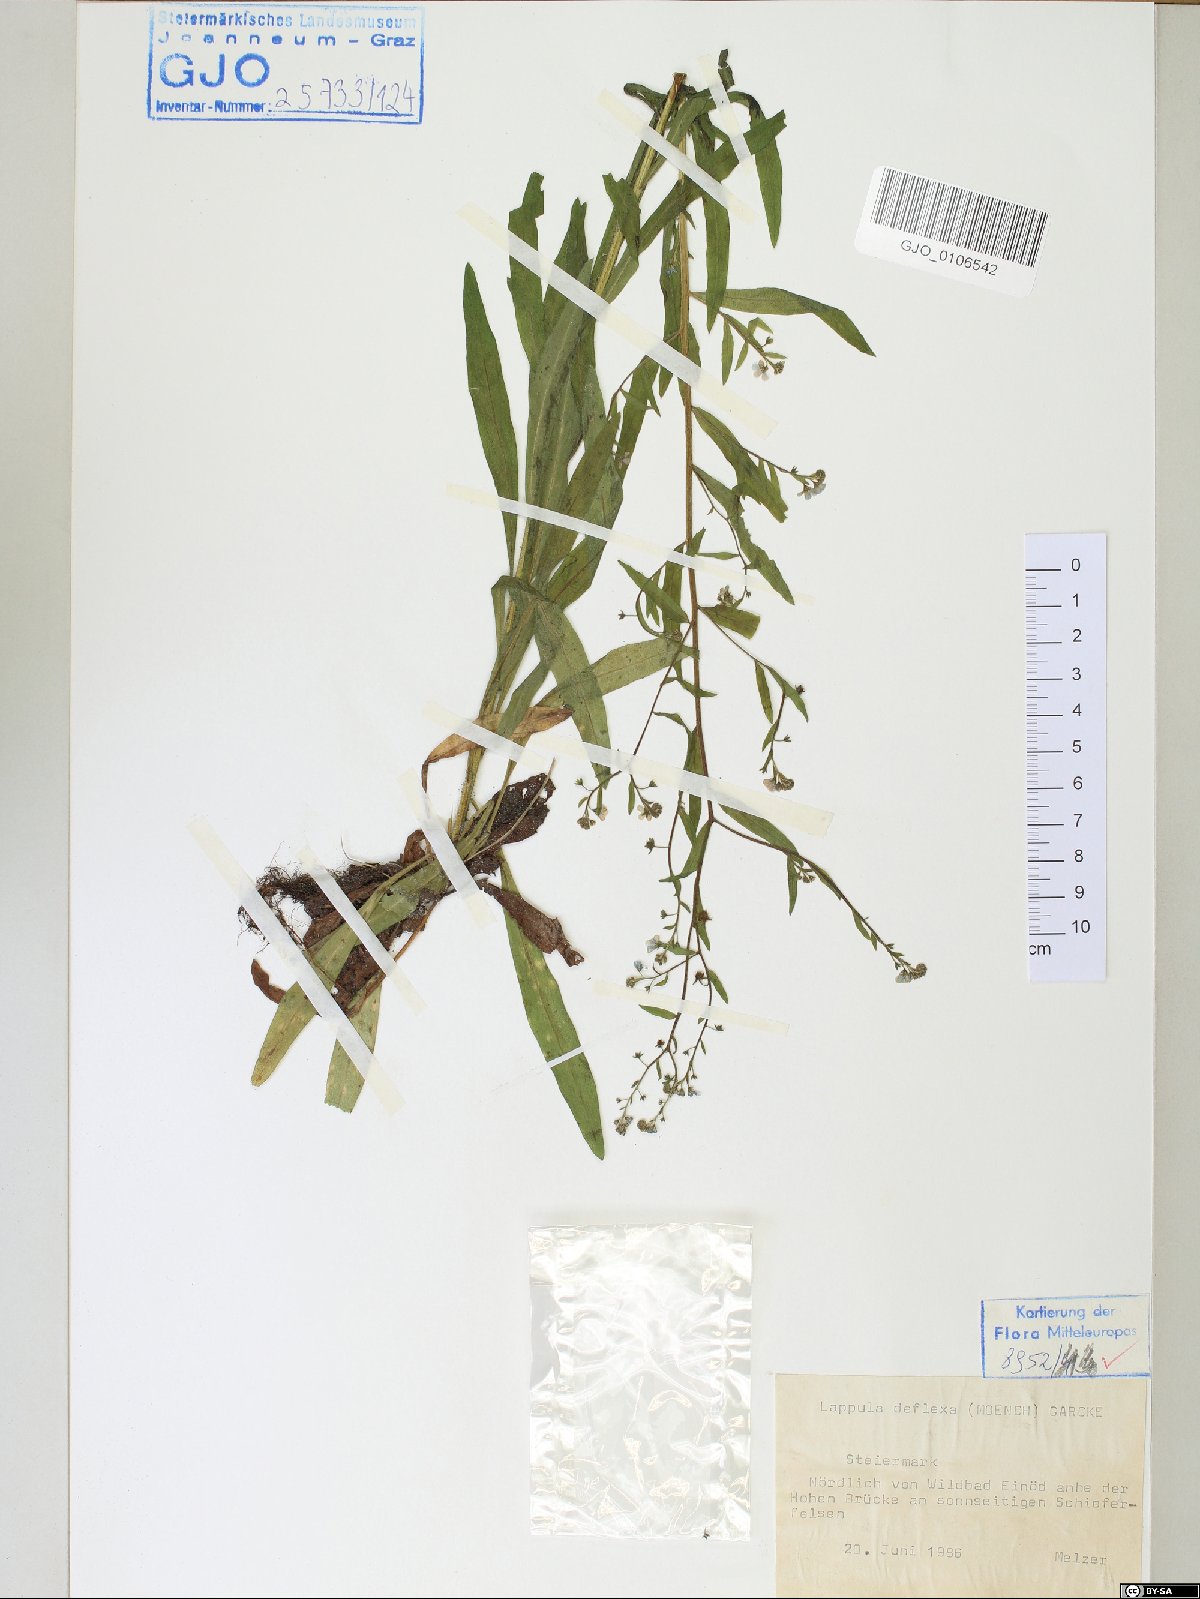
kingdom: Plantae
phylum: Tracheophyta
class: Magnoliopsida
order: Boraginales
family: Boraginaceae
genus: Hackelia
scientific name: Hackelia deflexa
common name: Nodding stickseed
